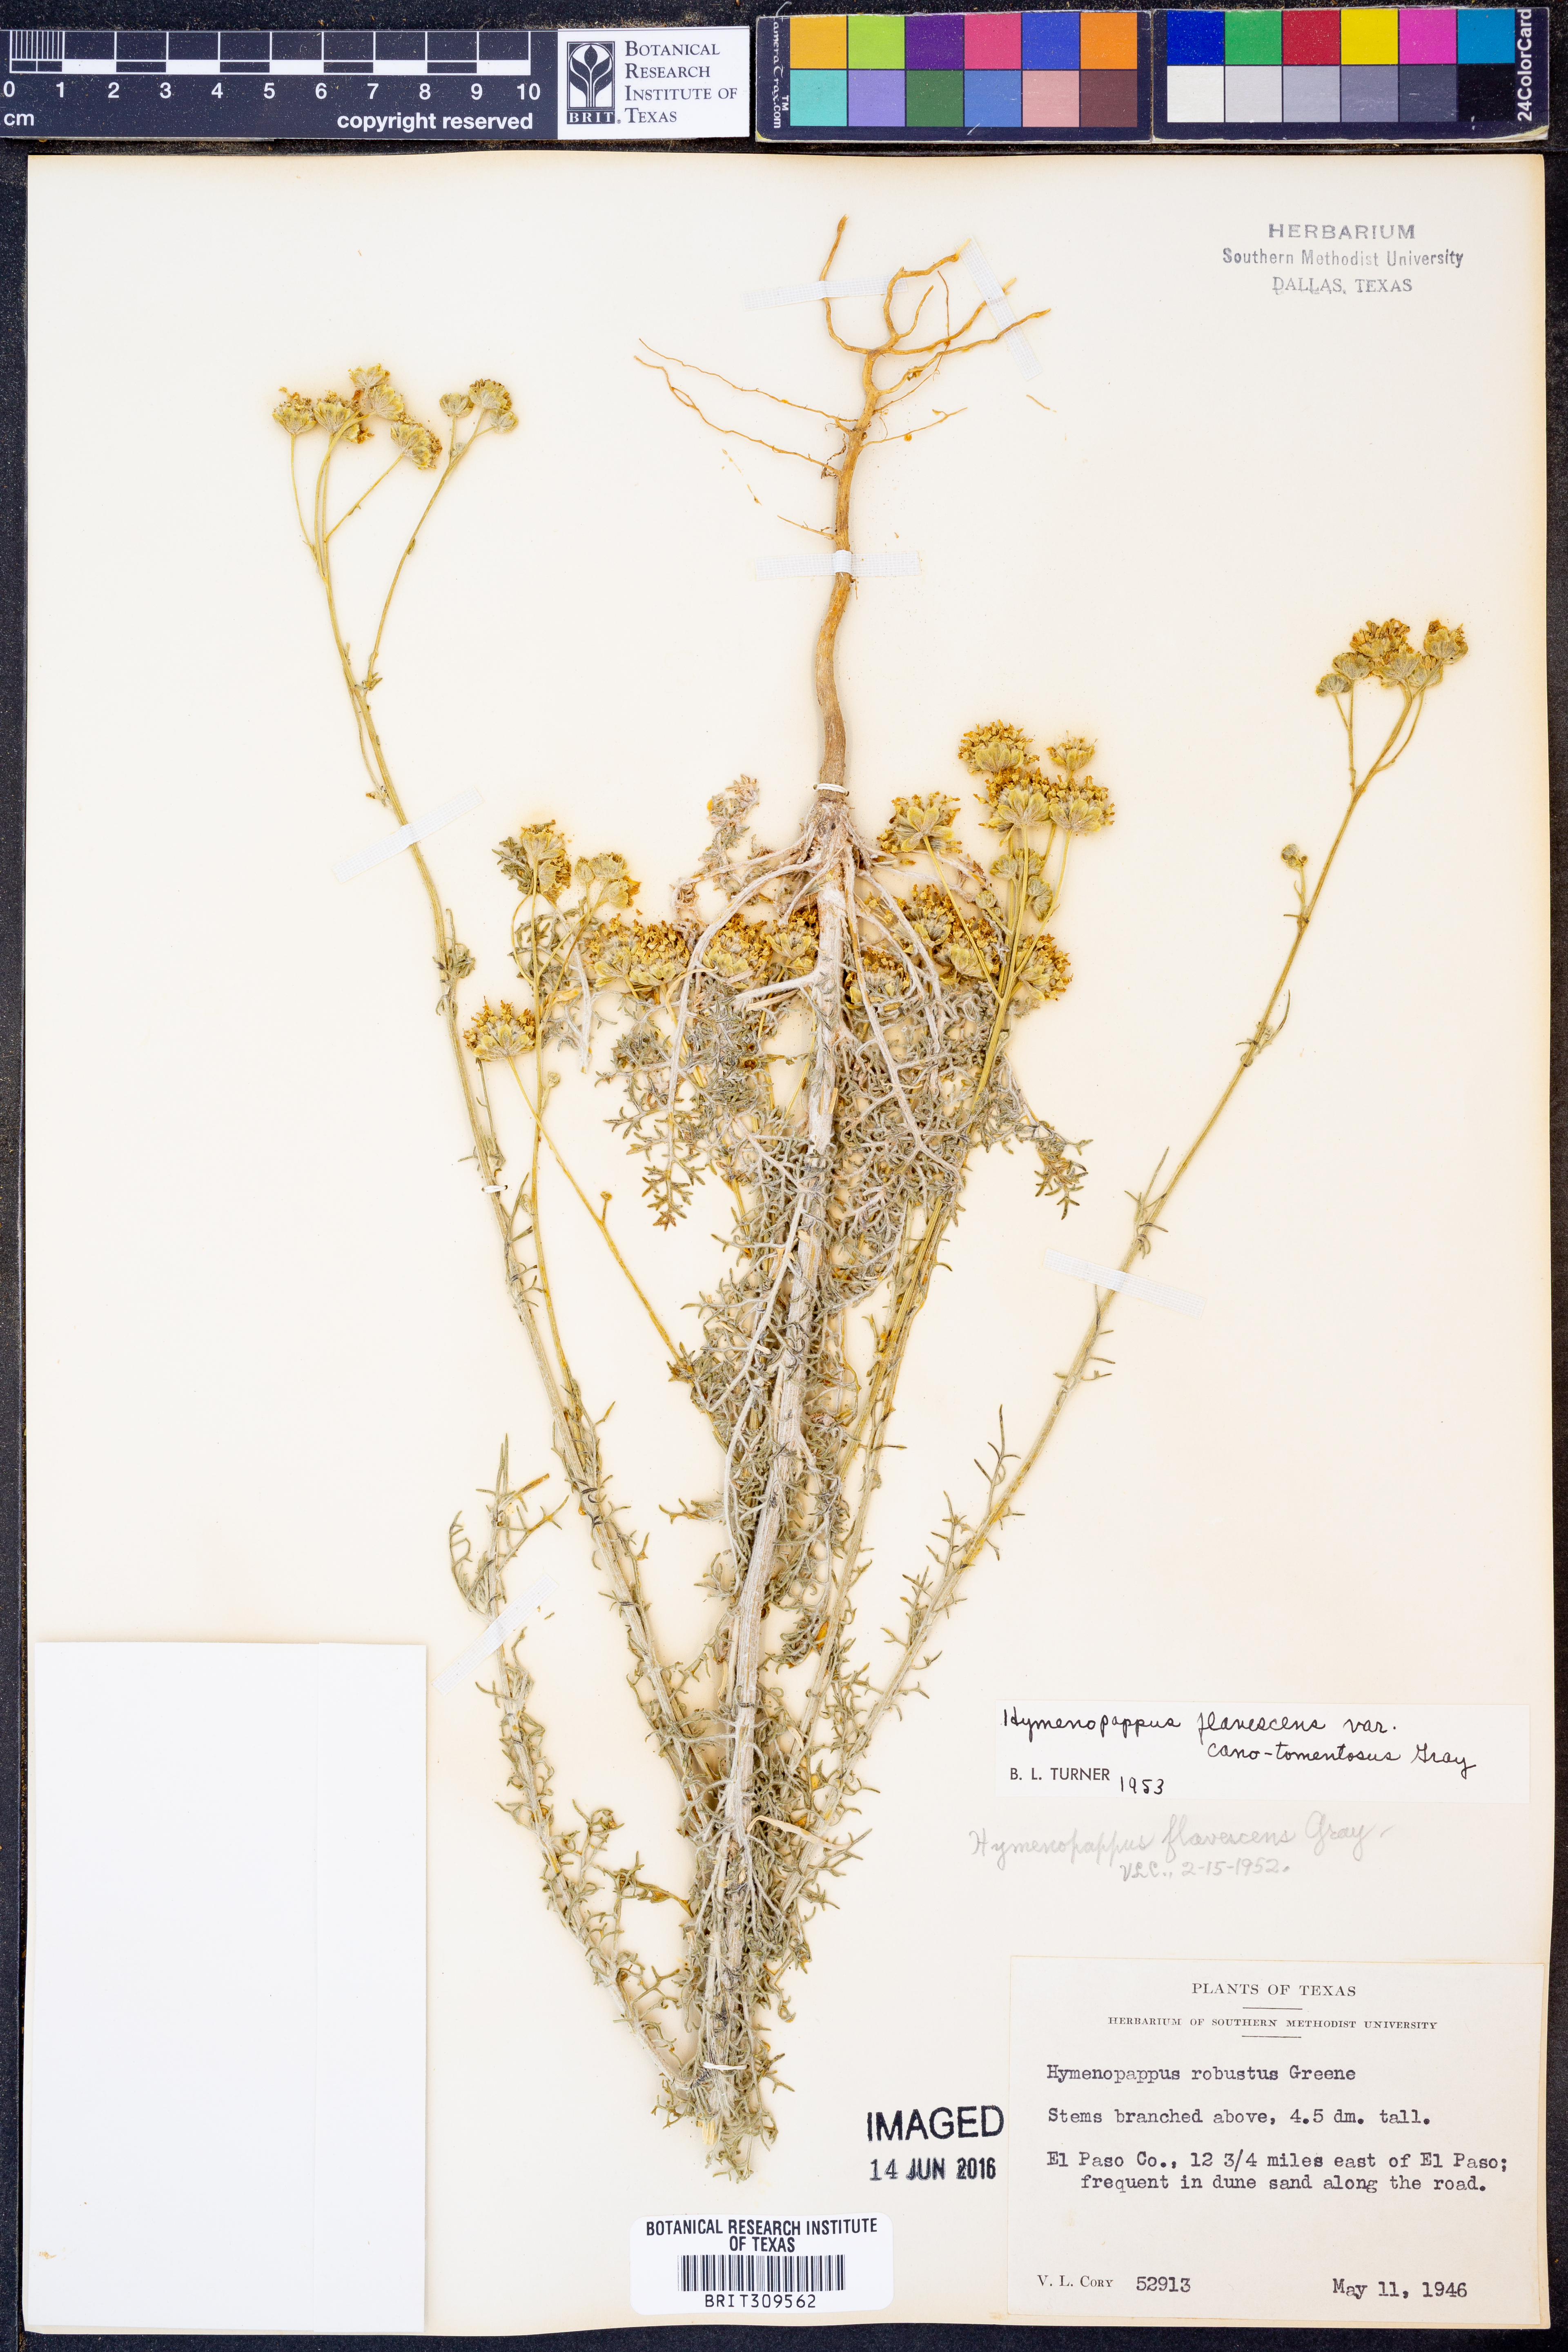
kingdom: Plantae
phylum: Tracheophyta
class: Magnoliopsida
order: Asterales
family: Asteraceae
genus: Hymenopappus
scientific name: Hymenopappus flavescens
